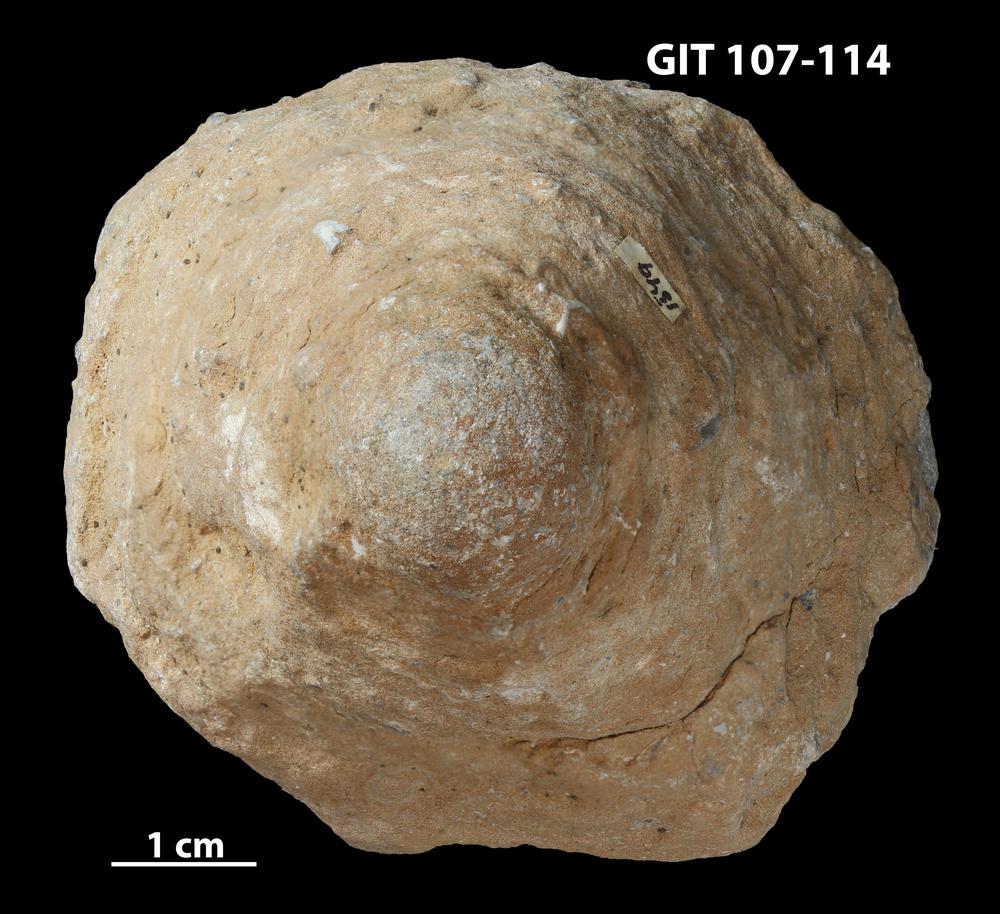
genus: Conichnus
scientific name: Conichnus
